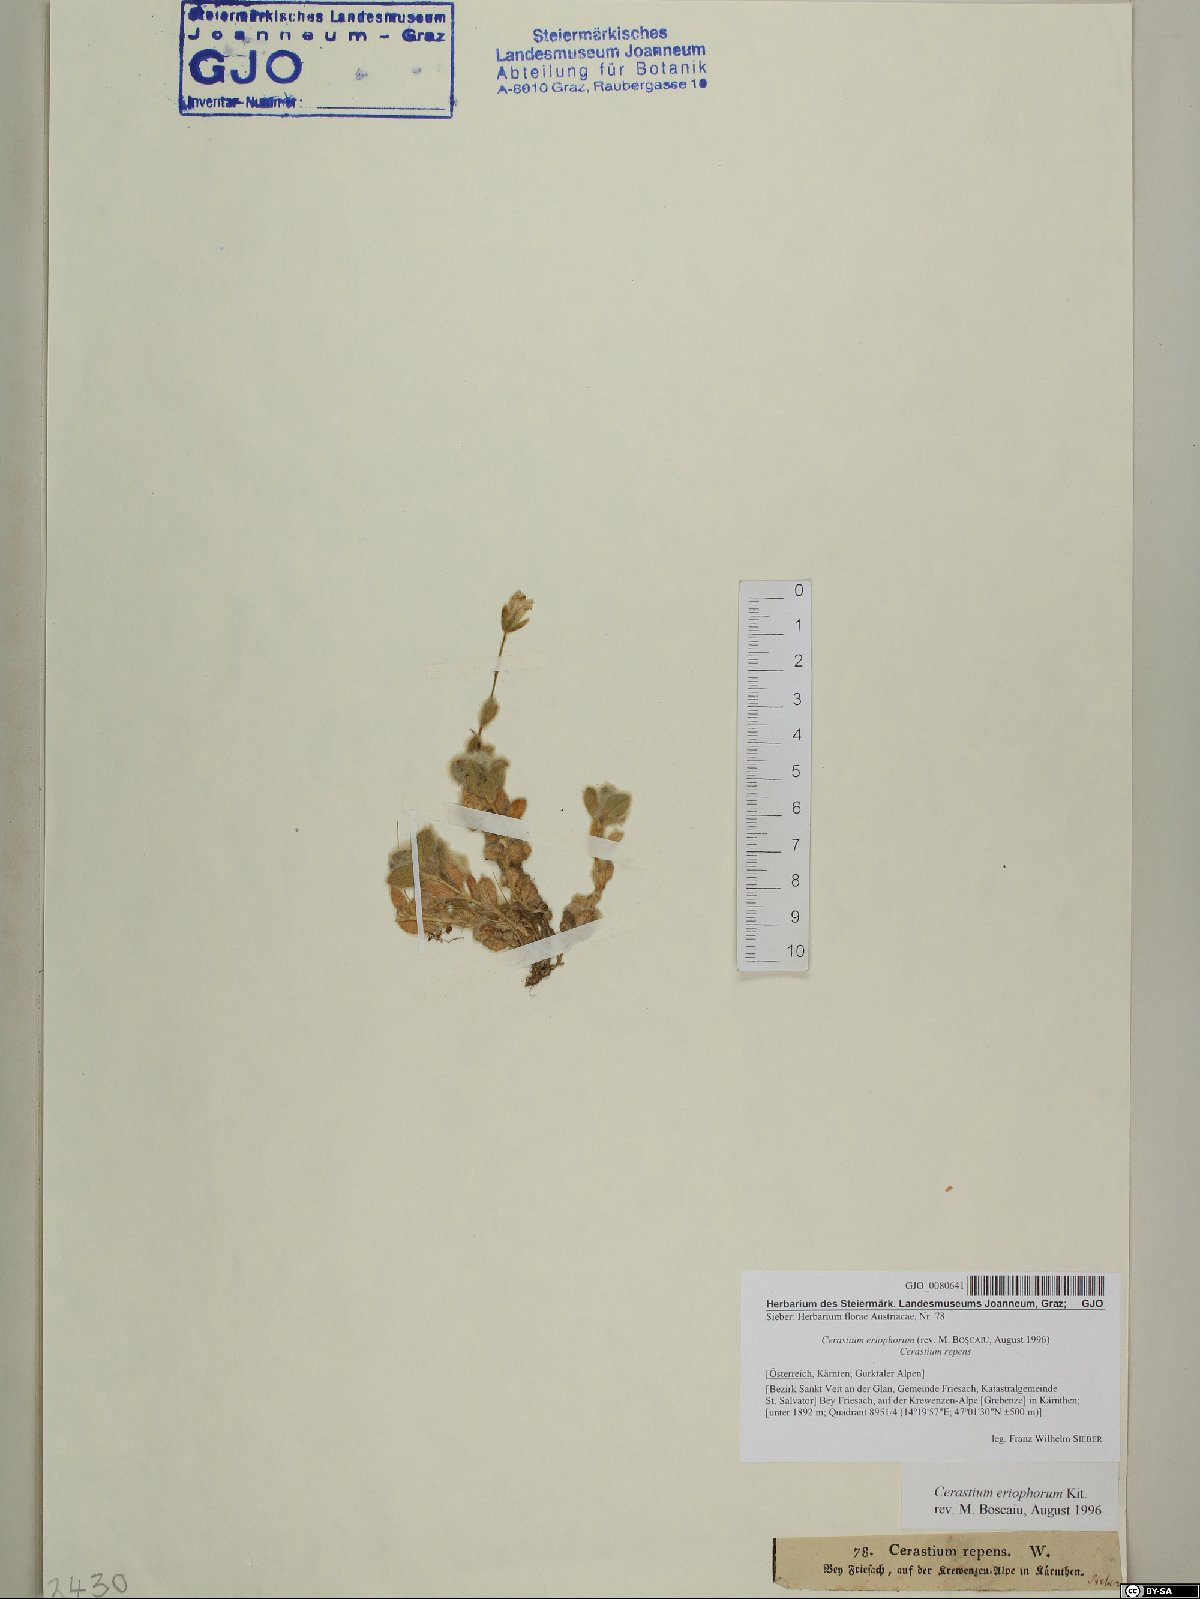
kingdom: Plantae
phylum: Tracheophyta
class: Magnoliopsida
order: Caryophyllales
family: Caryophyllaceae
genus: Cerastium
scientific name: Cerastium eriophorum
